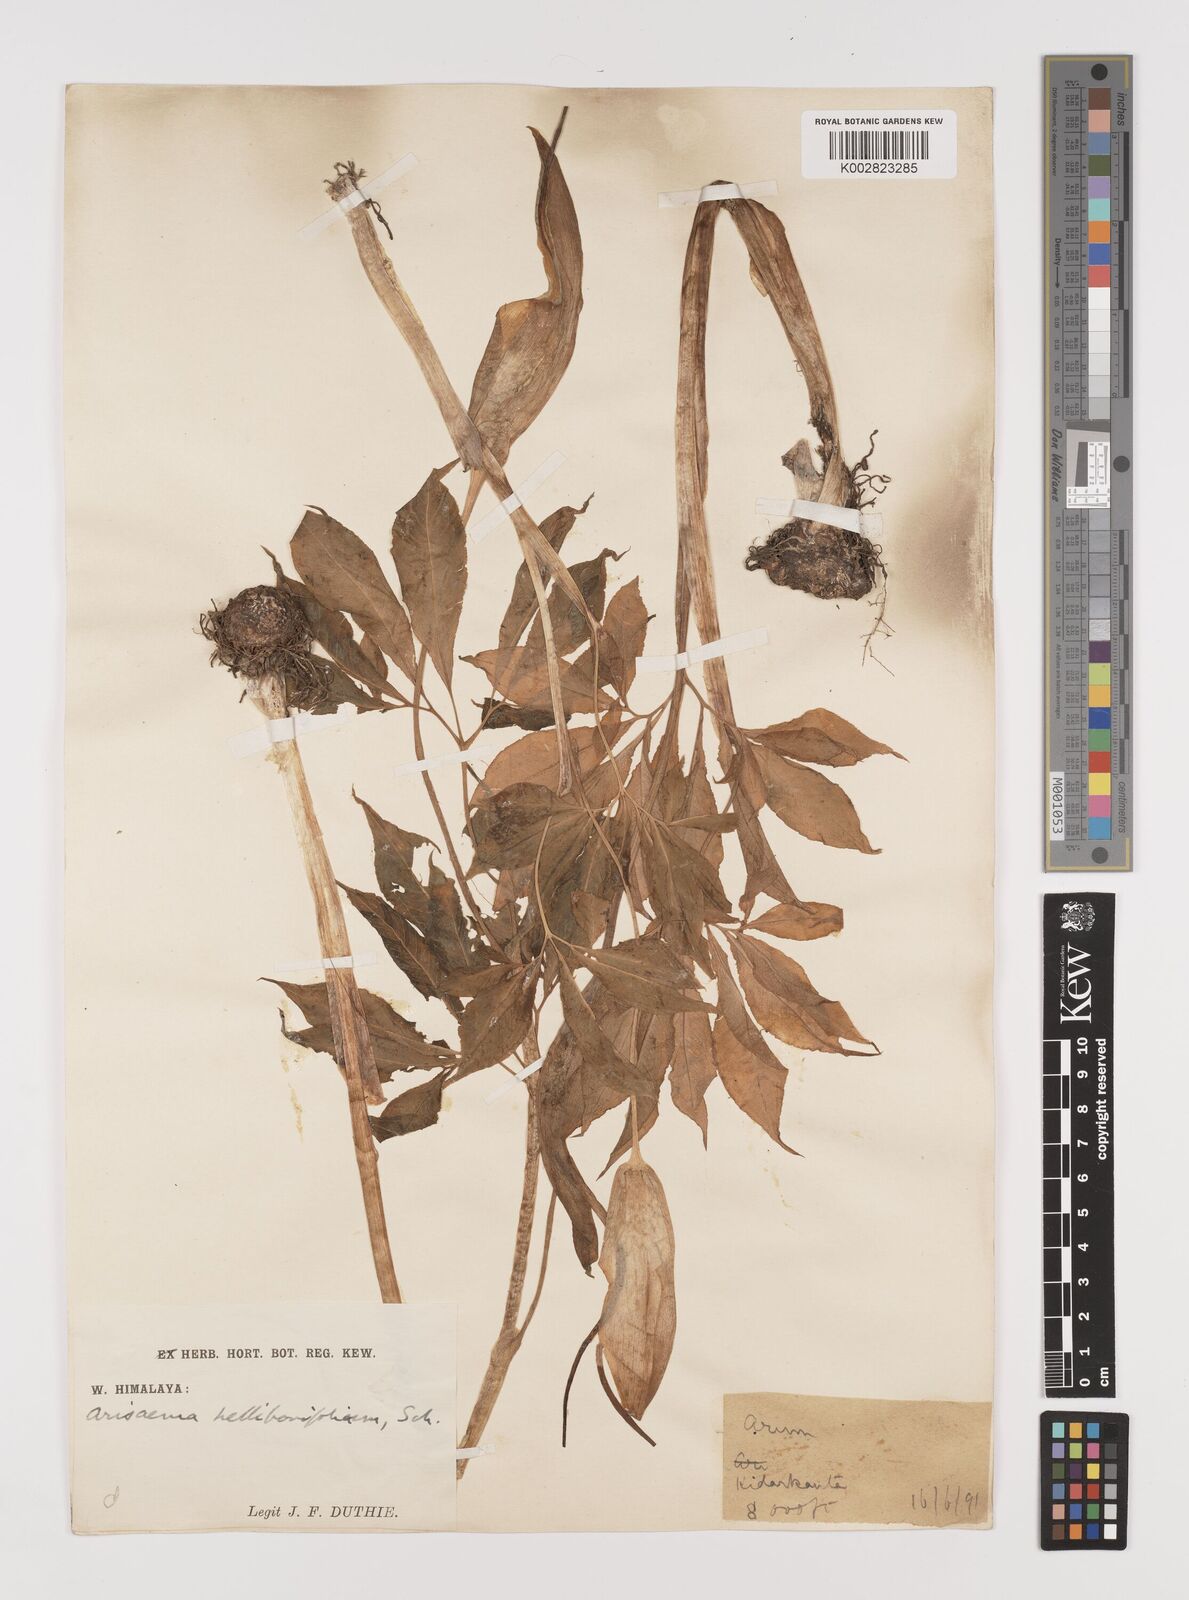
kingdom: Plantae
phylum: Tracheophyta
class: Liliopsida
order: Alismatales
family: Araceae
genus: Arisaema
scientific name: Arisaema tortuosum
